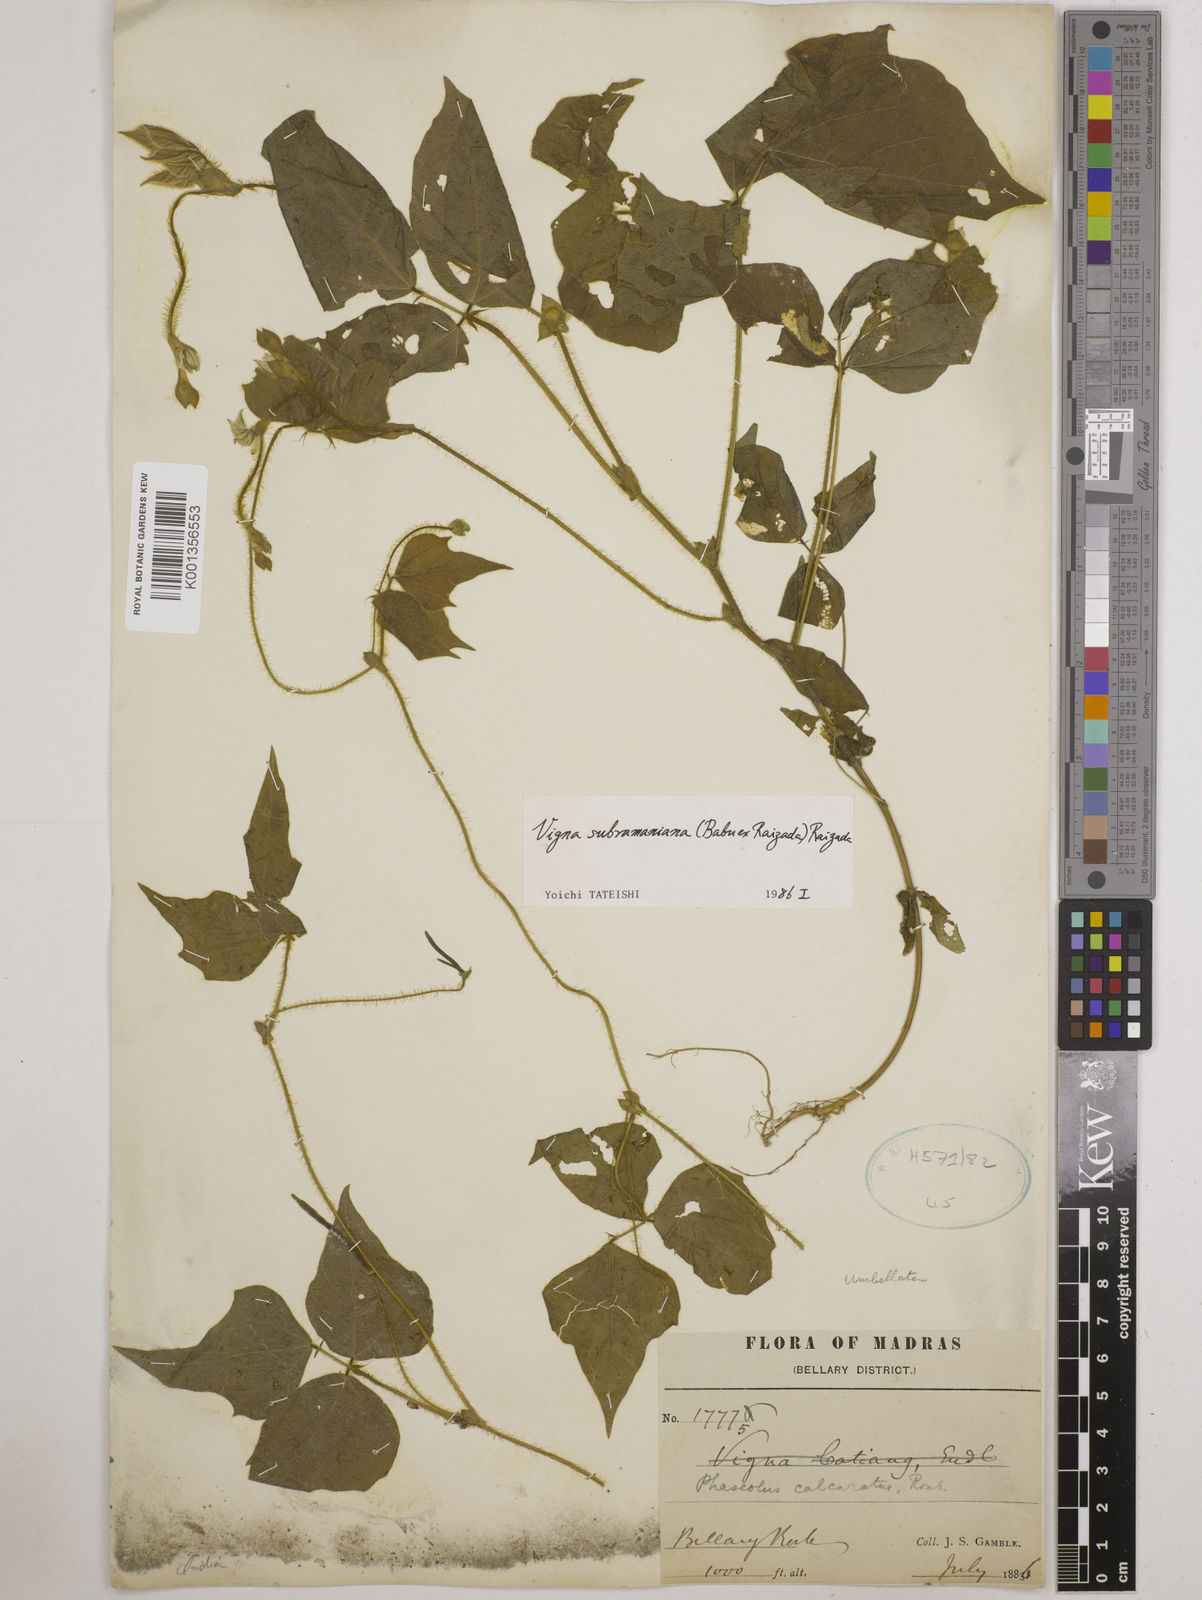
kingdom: Plantae
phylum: Tracheophyta
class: Magnoliopsida
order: Fabales
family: Fabaceae
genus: Vigna
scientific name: Vigna subramaniana
